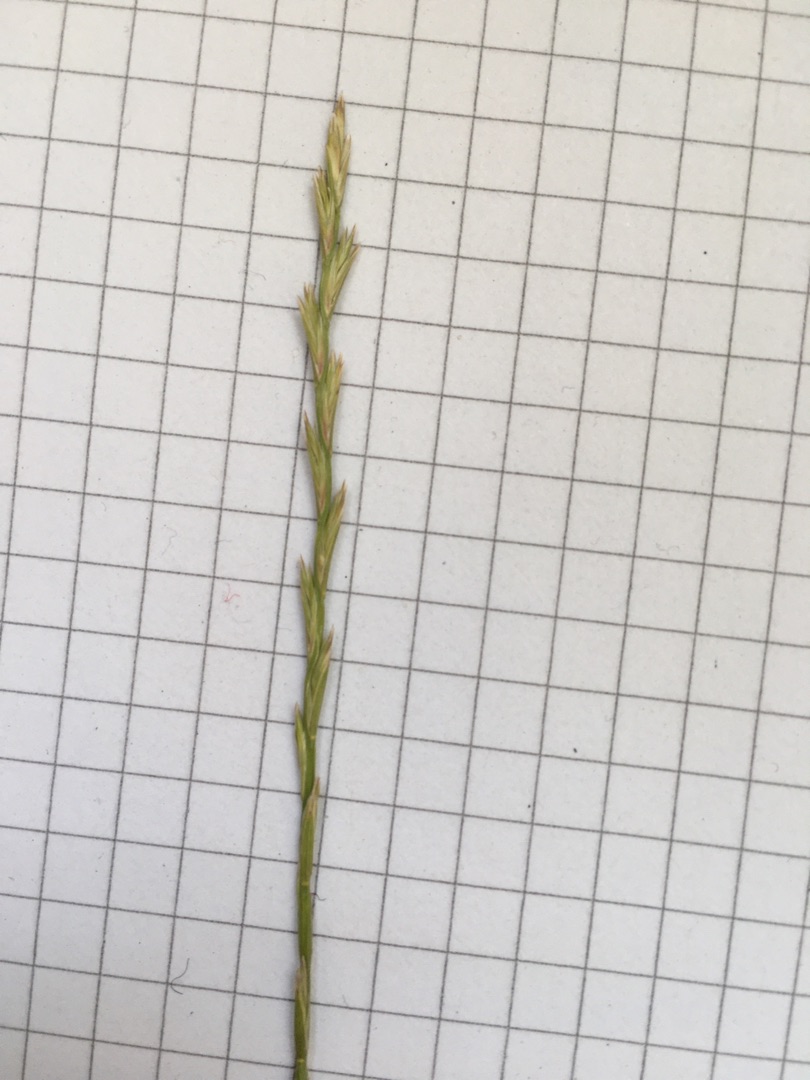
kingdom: Plantae
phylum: Tracheophyta
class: Liliopsida
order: Poales
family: Poaceae
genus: Lolium
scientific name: Lolium perenne
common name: Almindelig rajgræs
